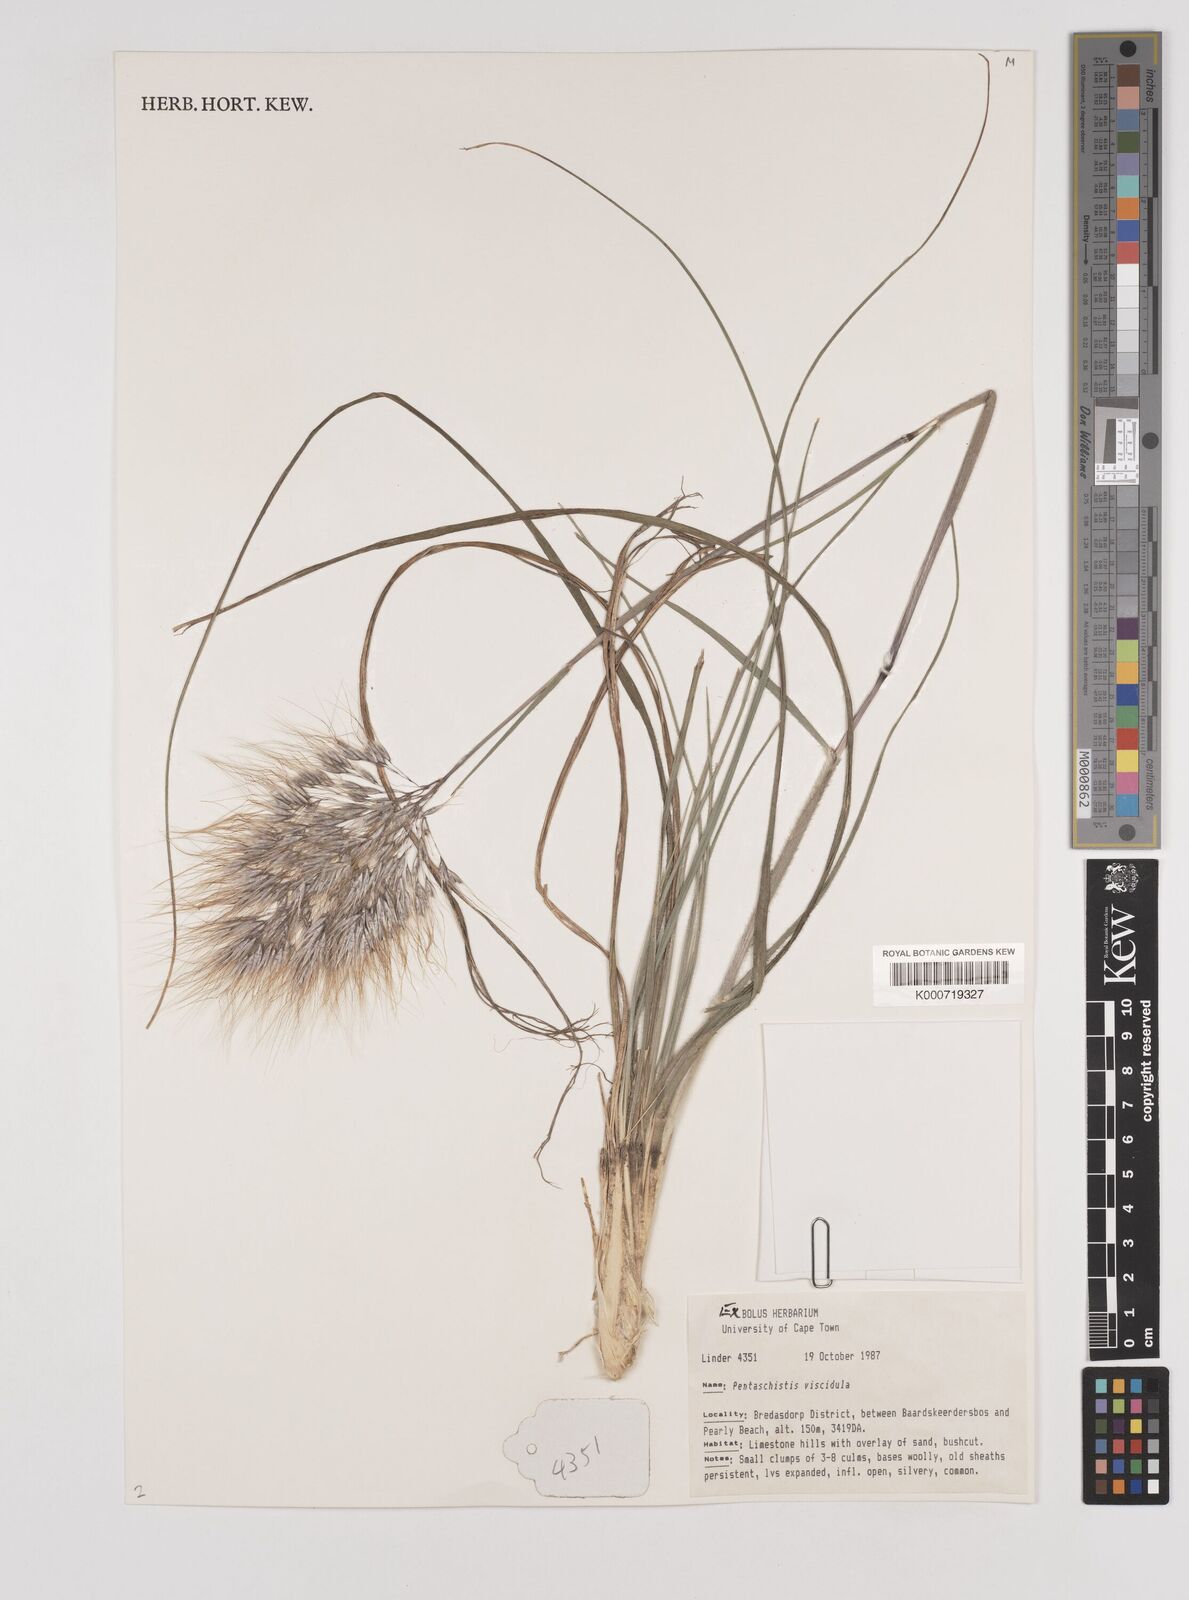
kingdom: Plantae
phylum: Tracheophyta
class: Liliopsida
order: Poales
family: Poaceae
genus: Pentameris
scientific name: Pentameris viscidula
